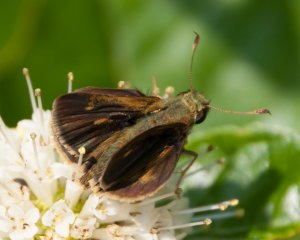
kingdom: Animalia
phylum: Arthropoda
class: Insecta
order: Lepidoptera
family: Hesperiidae
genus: Polites
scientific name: Polites egeremet
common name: Northern Broken-Dash
